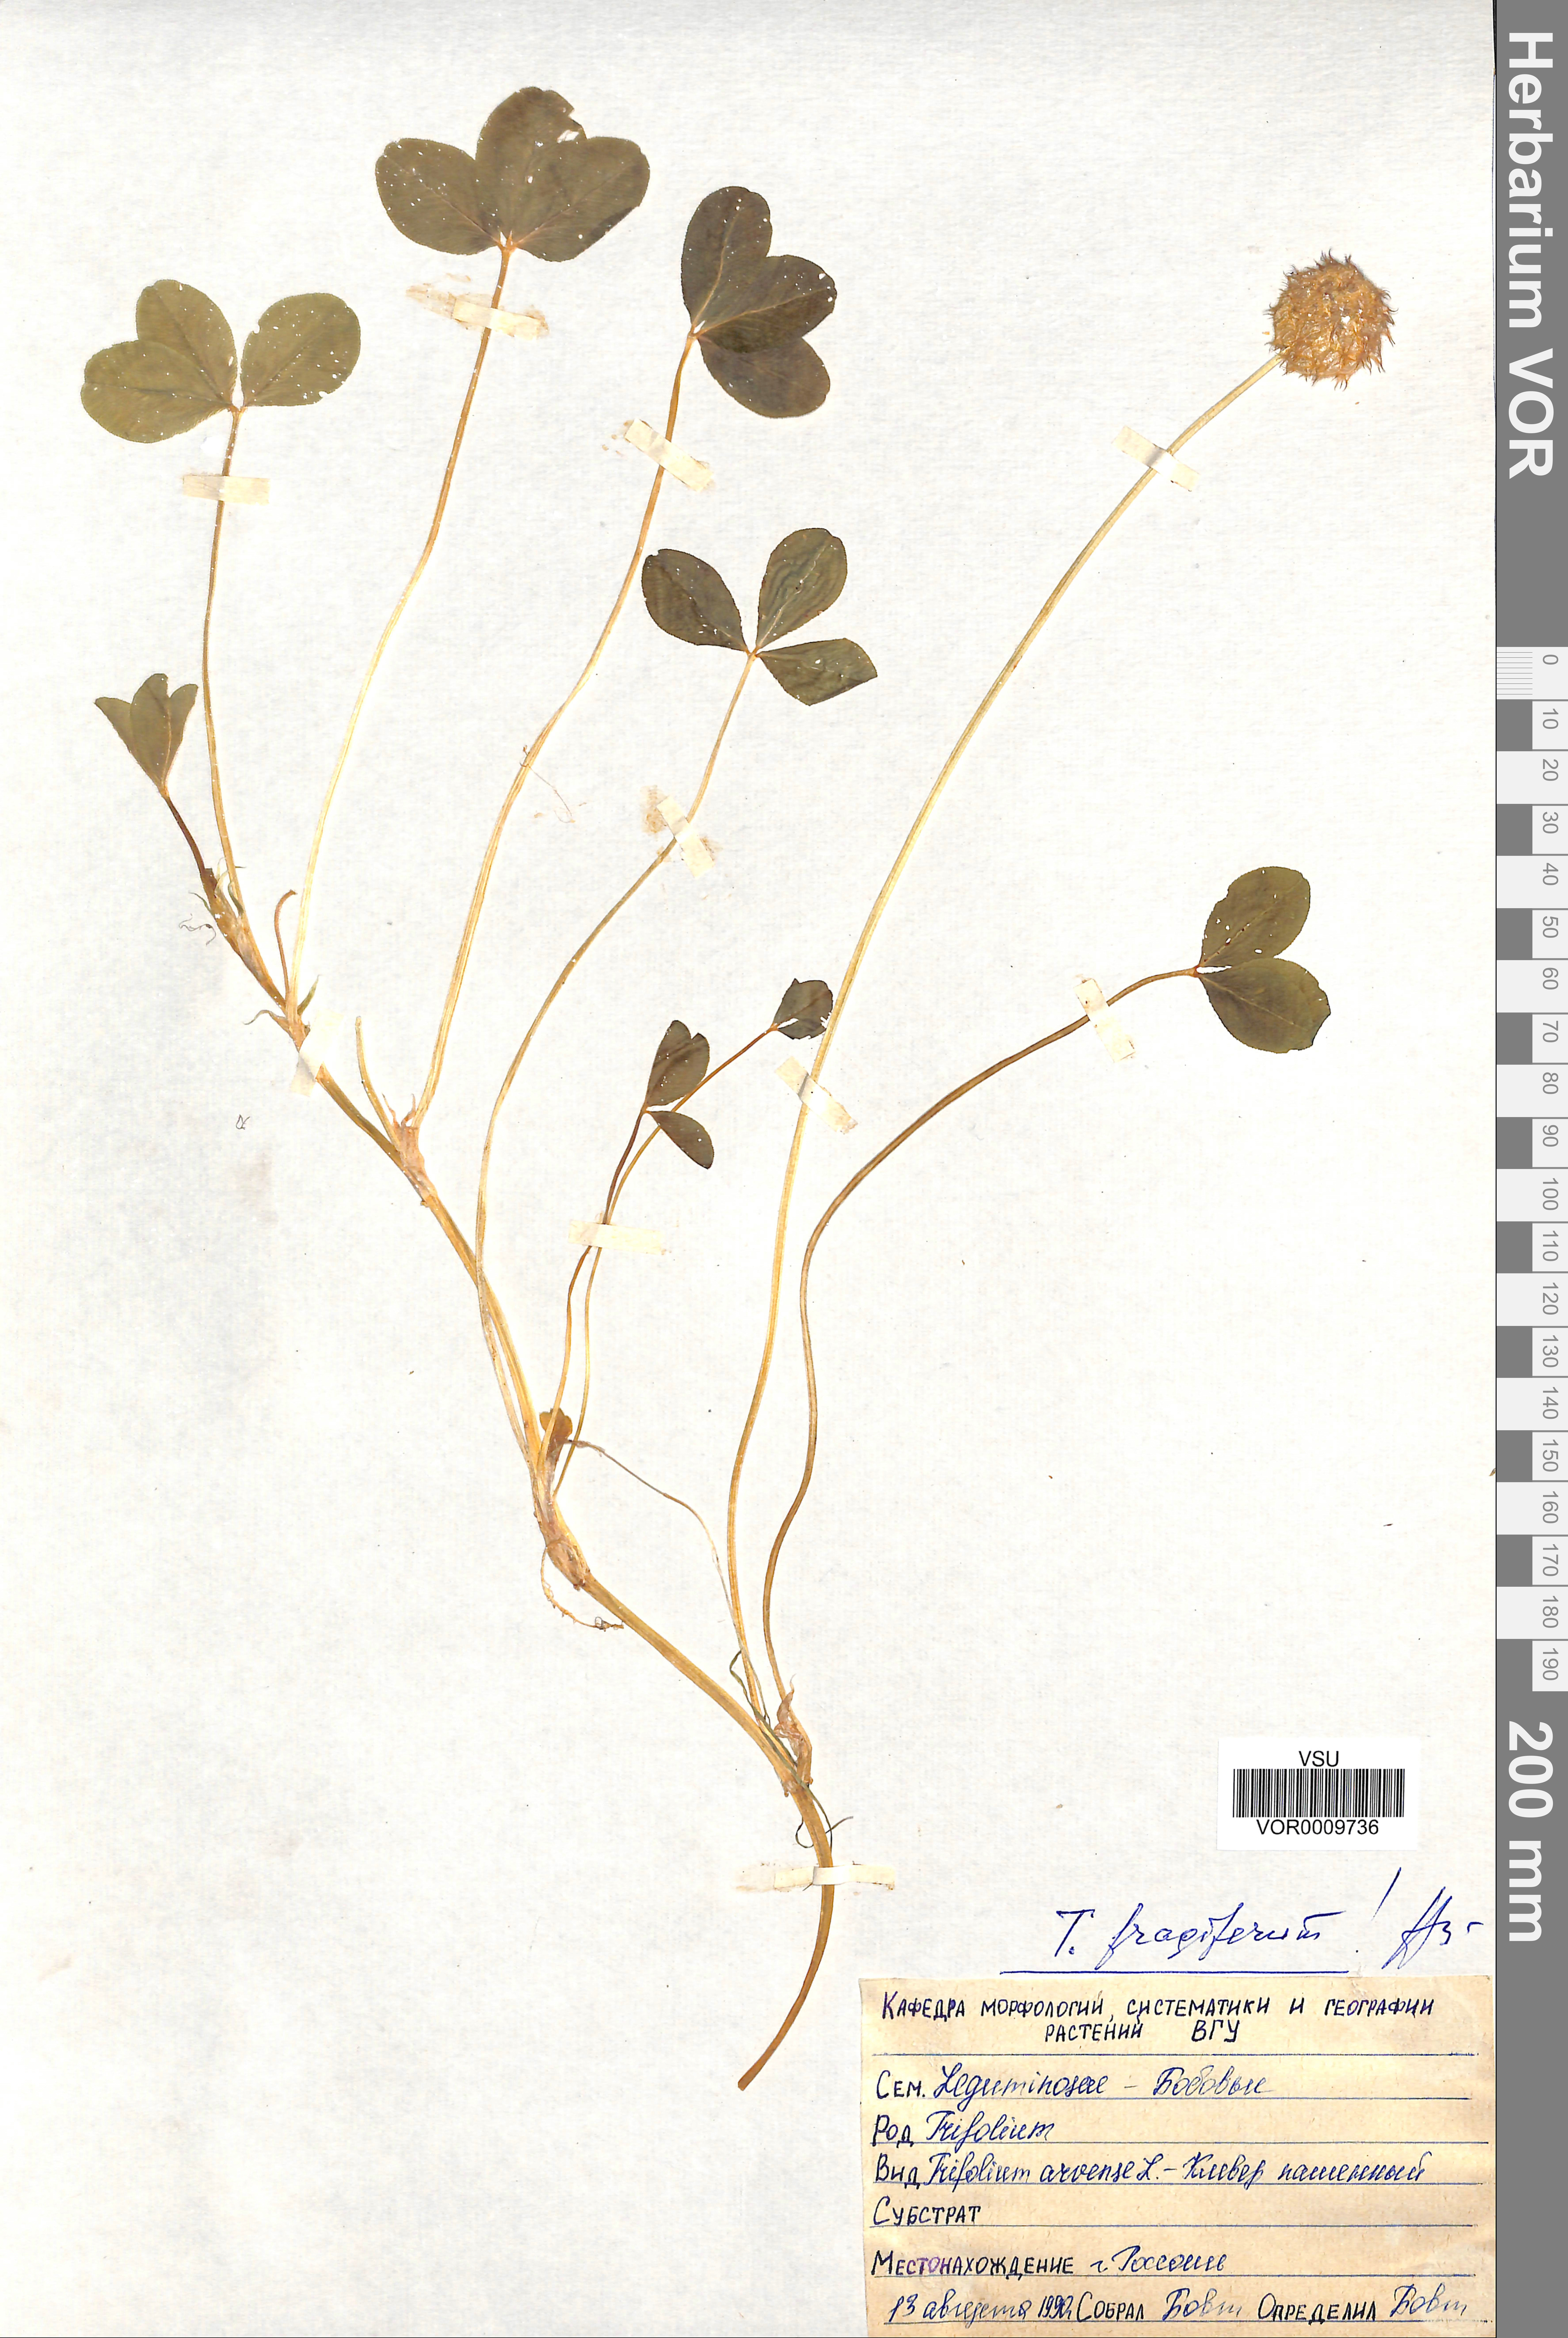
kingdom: Plantae
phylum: Tracheophyta
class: Magnoliopsida
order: Fabales
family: Fabaceae
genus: Trifolium
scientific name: Trifolium fragiferum
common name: Strawberry clover
